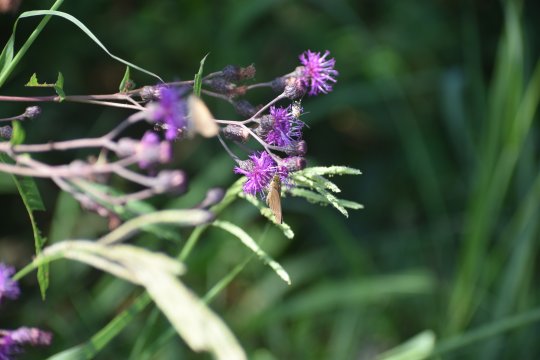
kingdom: Animalia
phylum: Arthropoda
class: Insecta
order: Lepidoptera
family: Hesperiidae
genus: Panoquina
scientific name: Panoquina ocola
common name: Ocola Skipper
